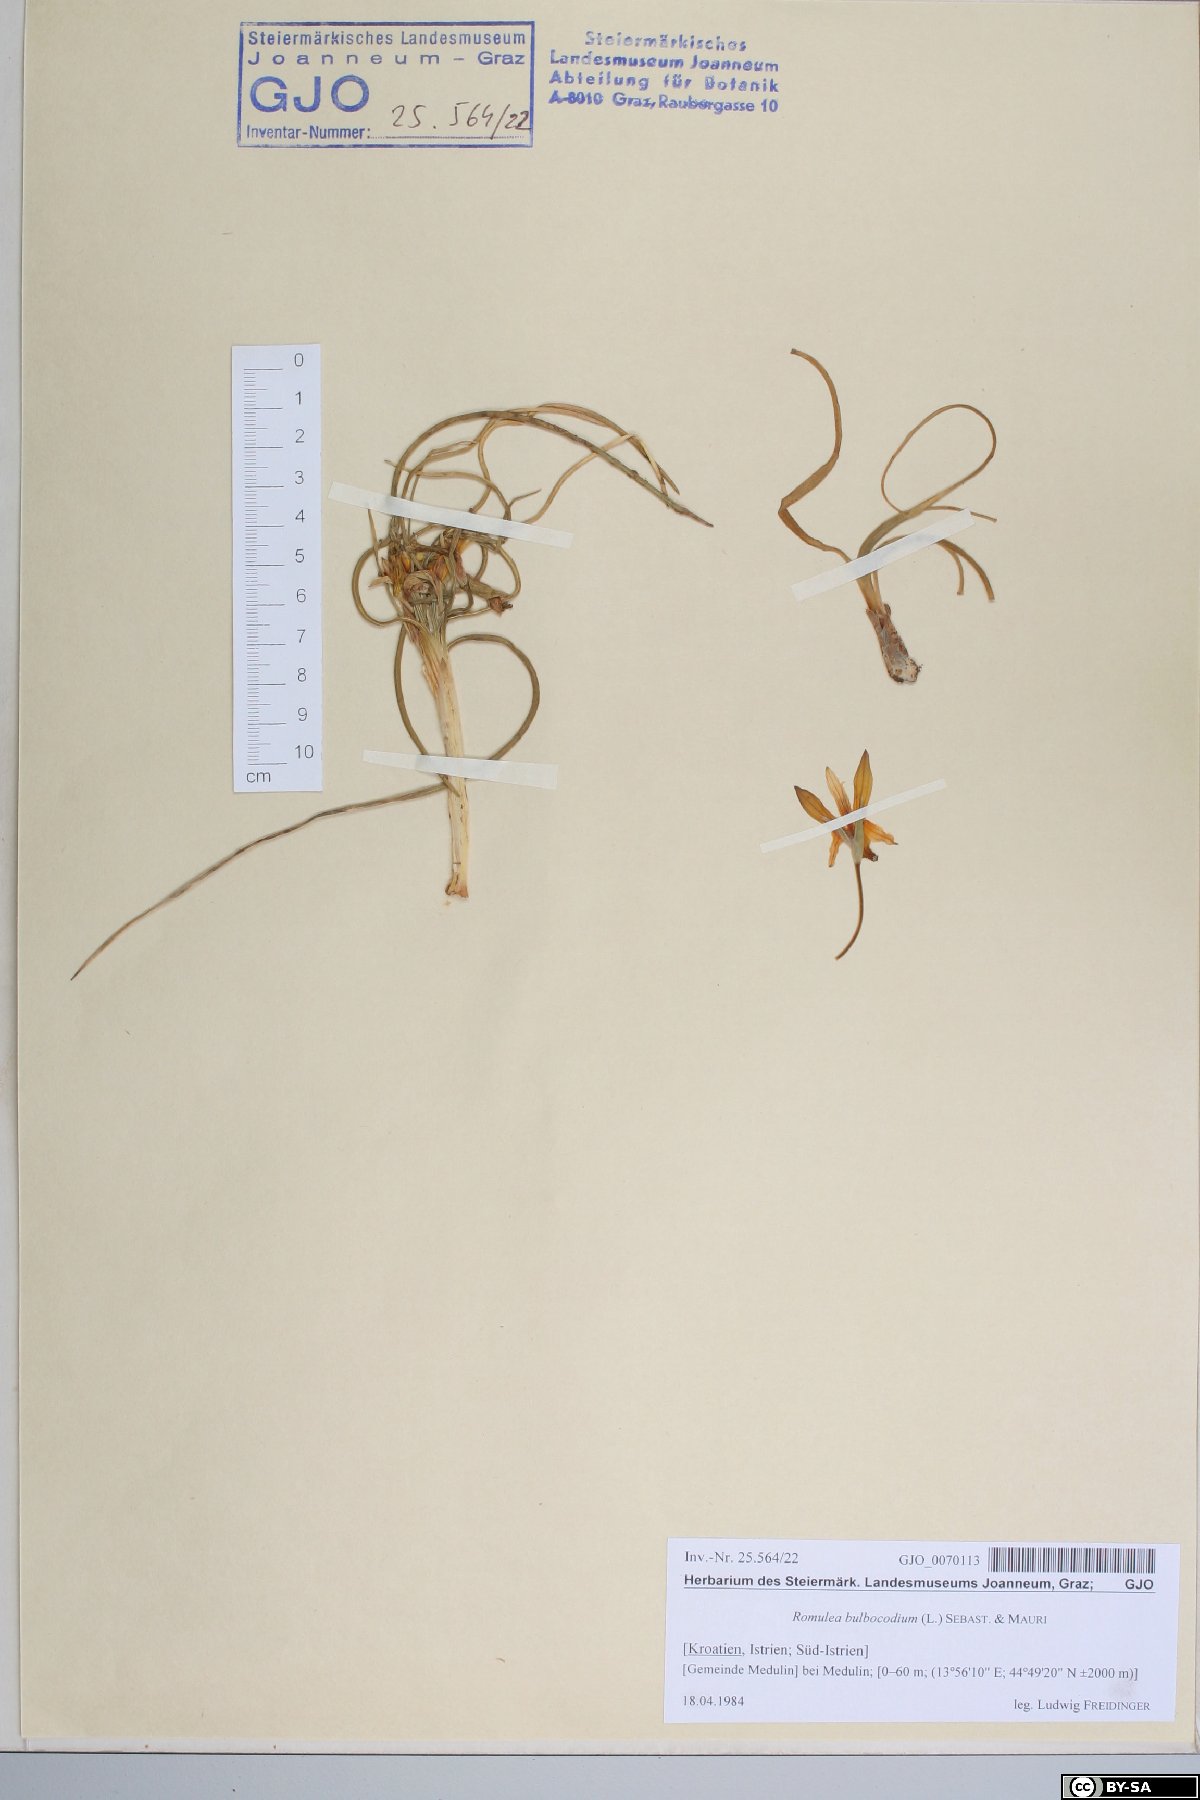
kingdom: Plantae
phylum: Tracheophyta
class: Liliopsida
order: Asparagales
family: Iridaceae
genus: Romulea
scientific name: Romulea bulbocodium
